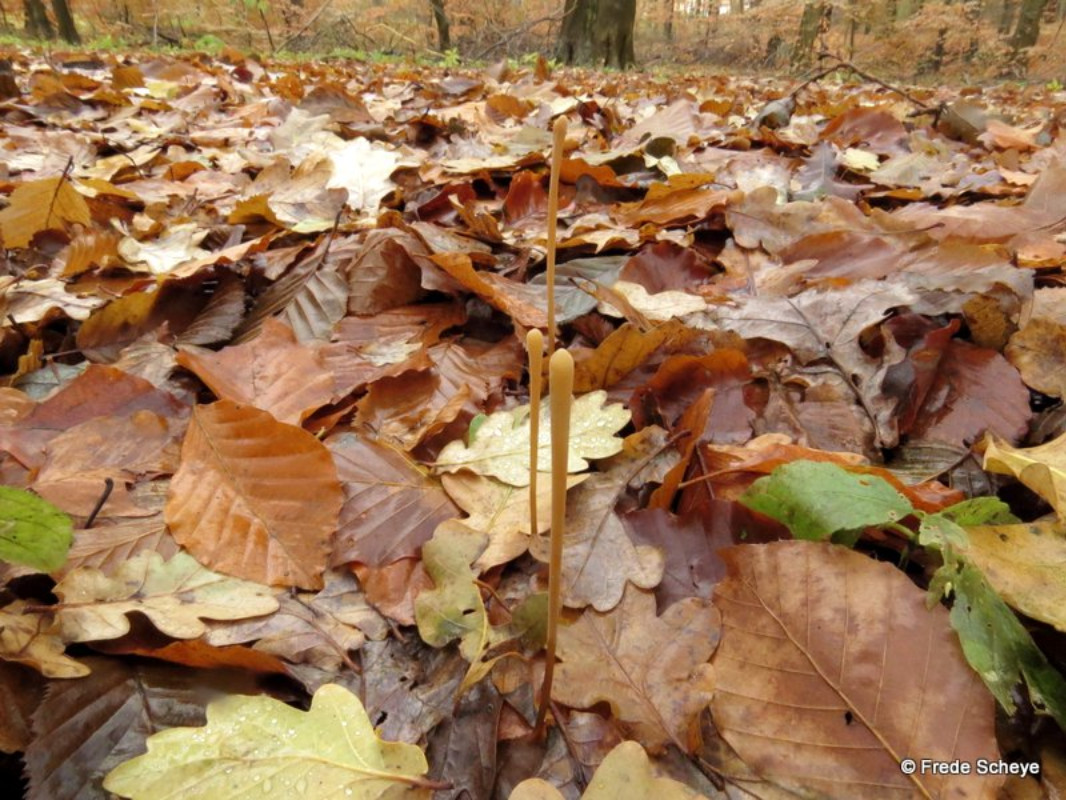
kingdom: Fungi
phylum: Basidiomycota
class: Agaricomycetes
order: Agaricales
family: Typhulaceae
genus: Typhula
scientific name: Typhula fistulosa
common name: pibet rørkølle
